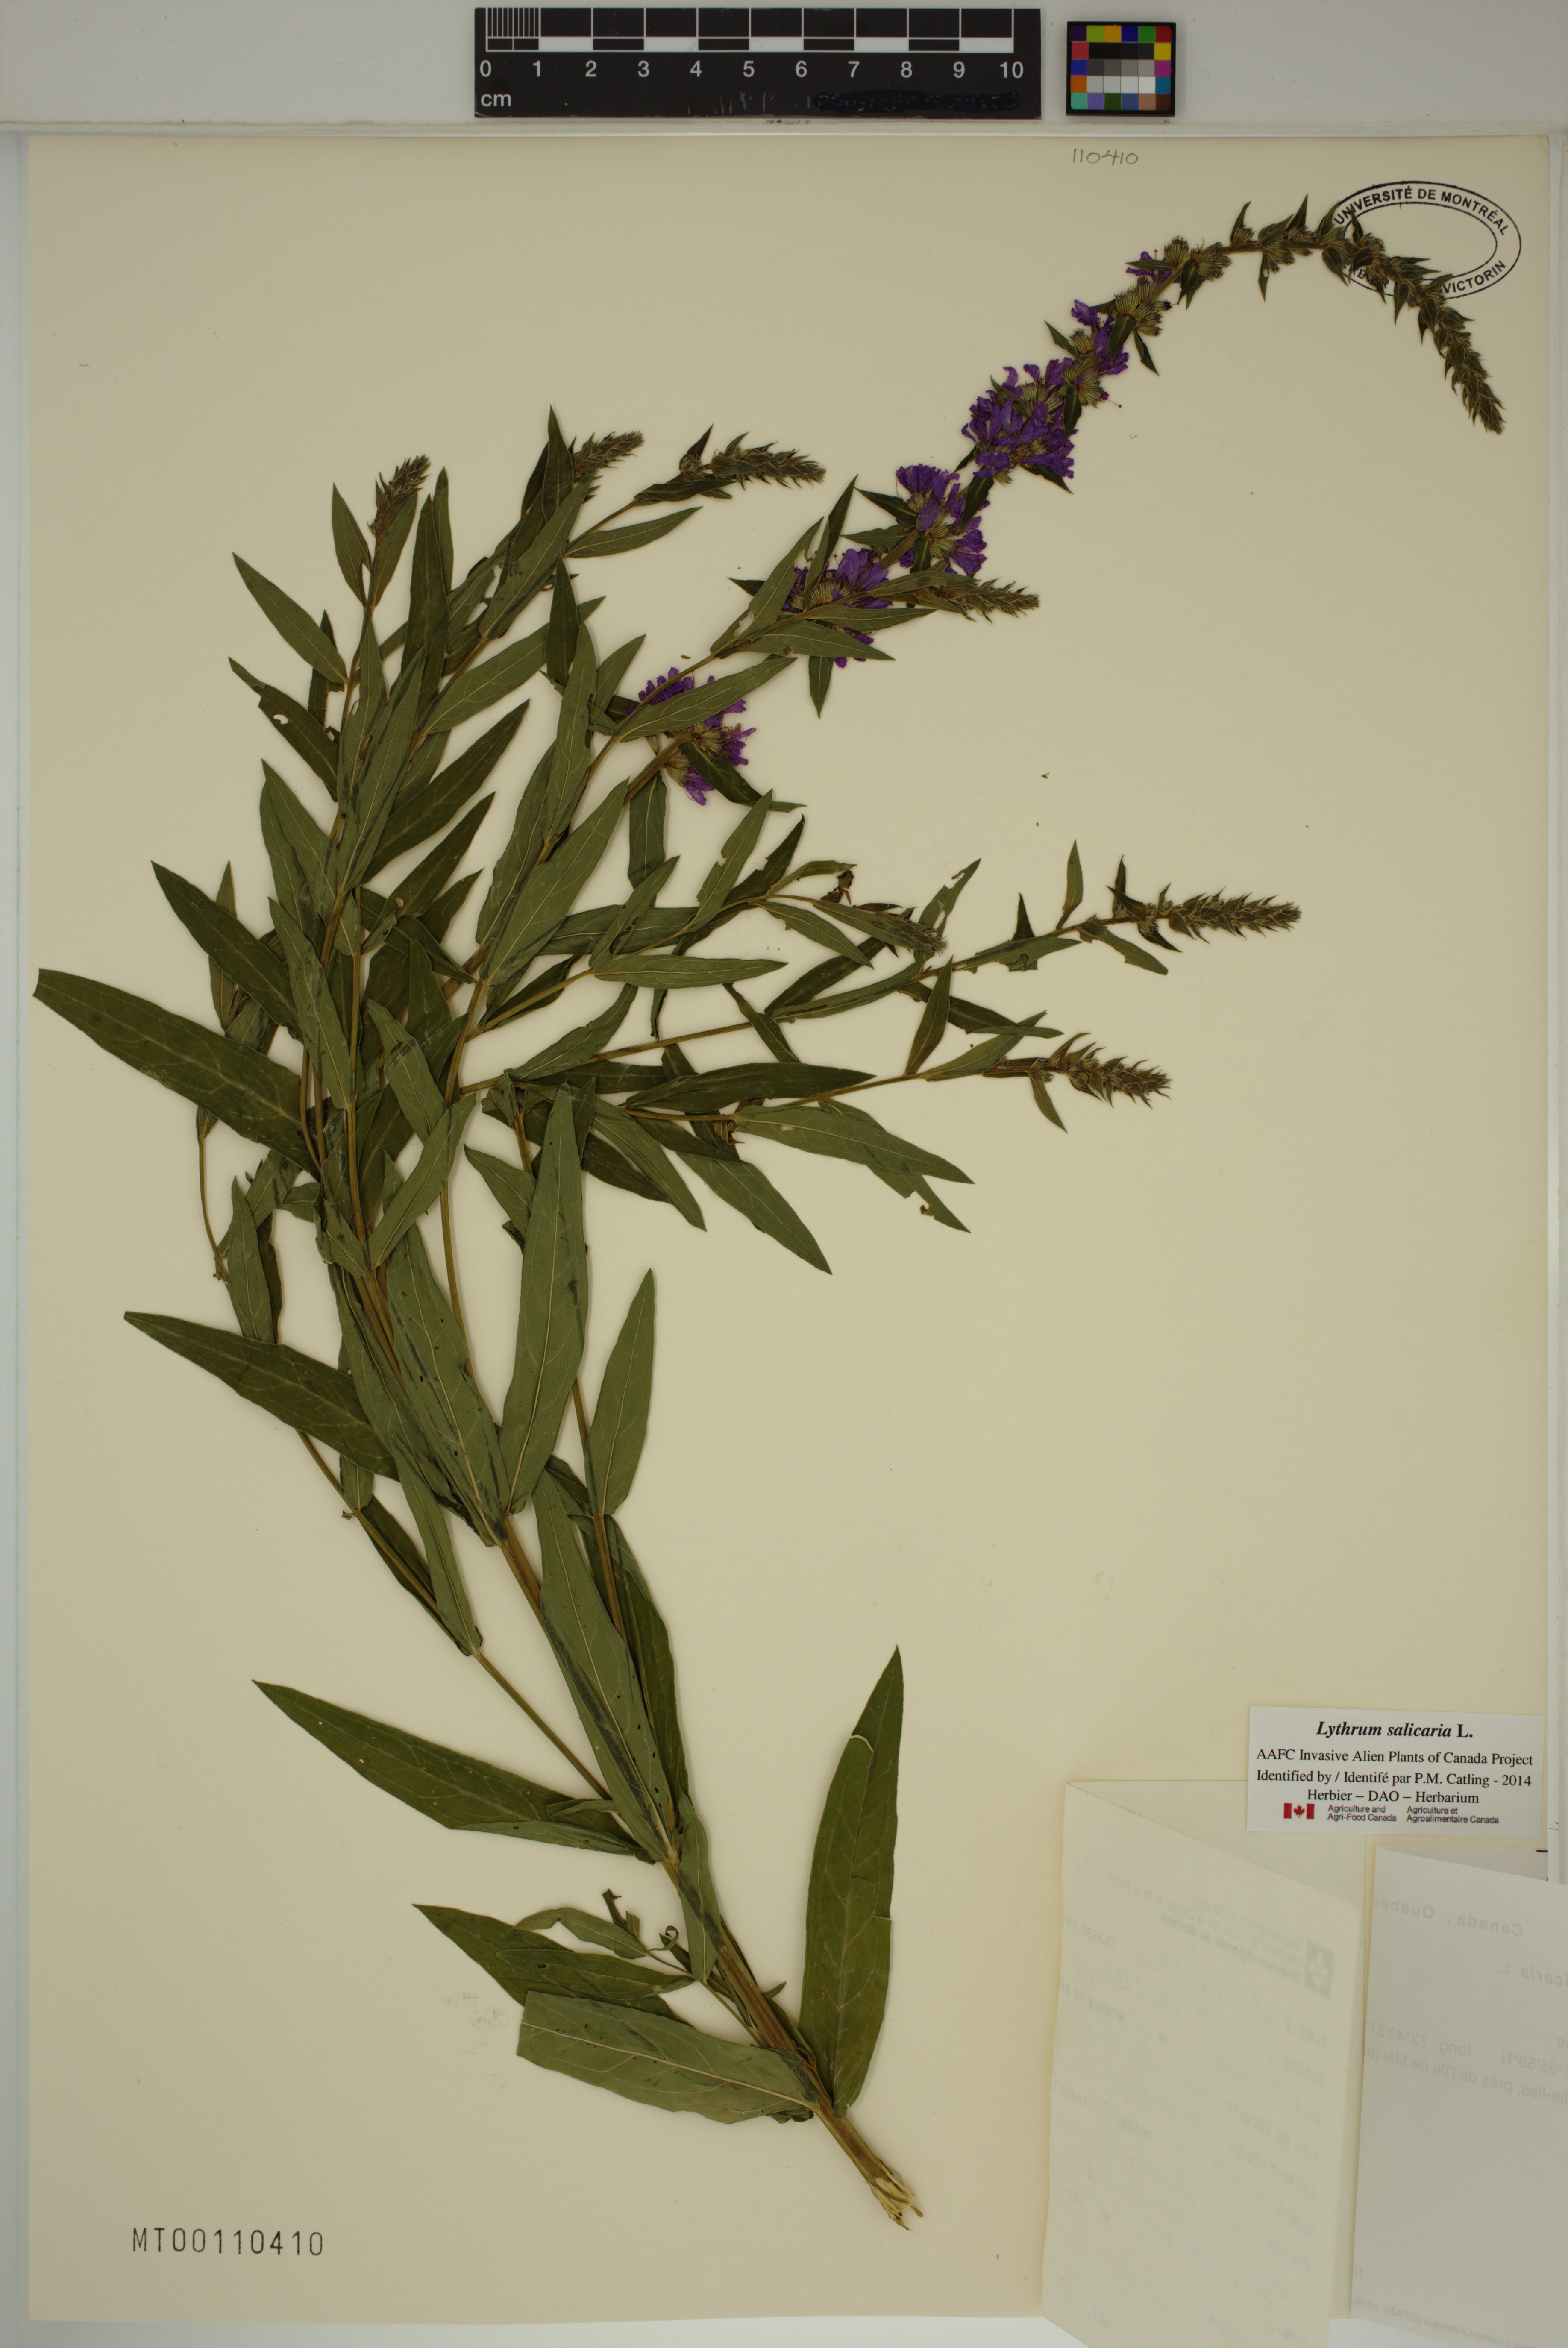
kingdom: Plantae
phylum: Tracheophyta
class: Magnoliopsida
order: Myrtales
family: Lythraceae
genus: Lythrum
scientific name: Lythrum salicaria
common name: Purple loosestrife
